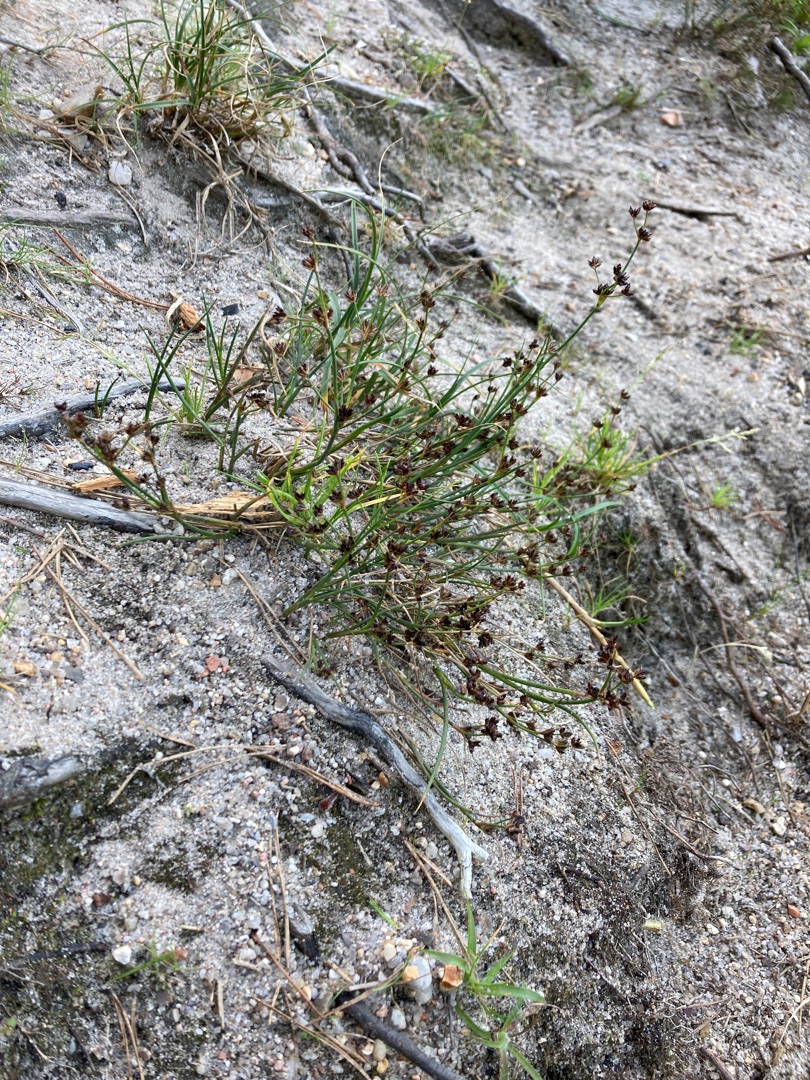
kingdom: Plantae
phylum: Tracheophyta
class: Liliopsida
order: Poales
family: Juncaceae
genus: Juncus
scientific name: Juncus articulatus
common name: Glanskapslet siv
